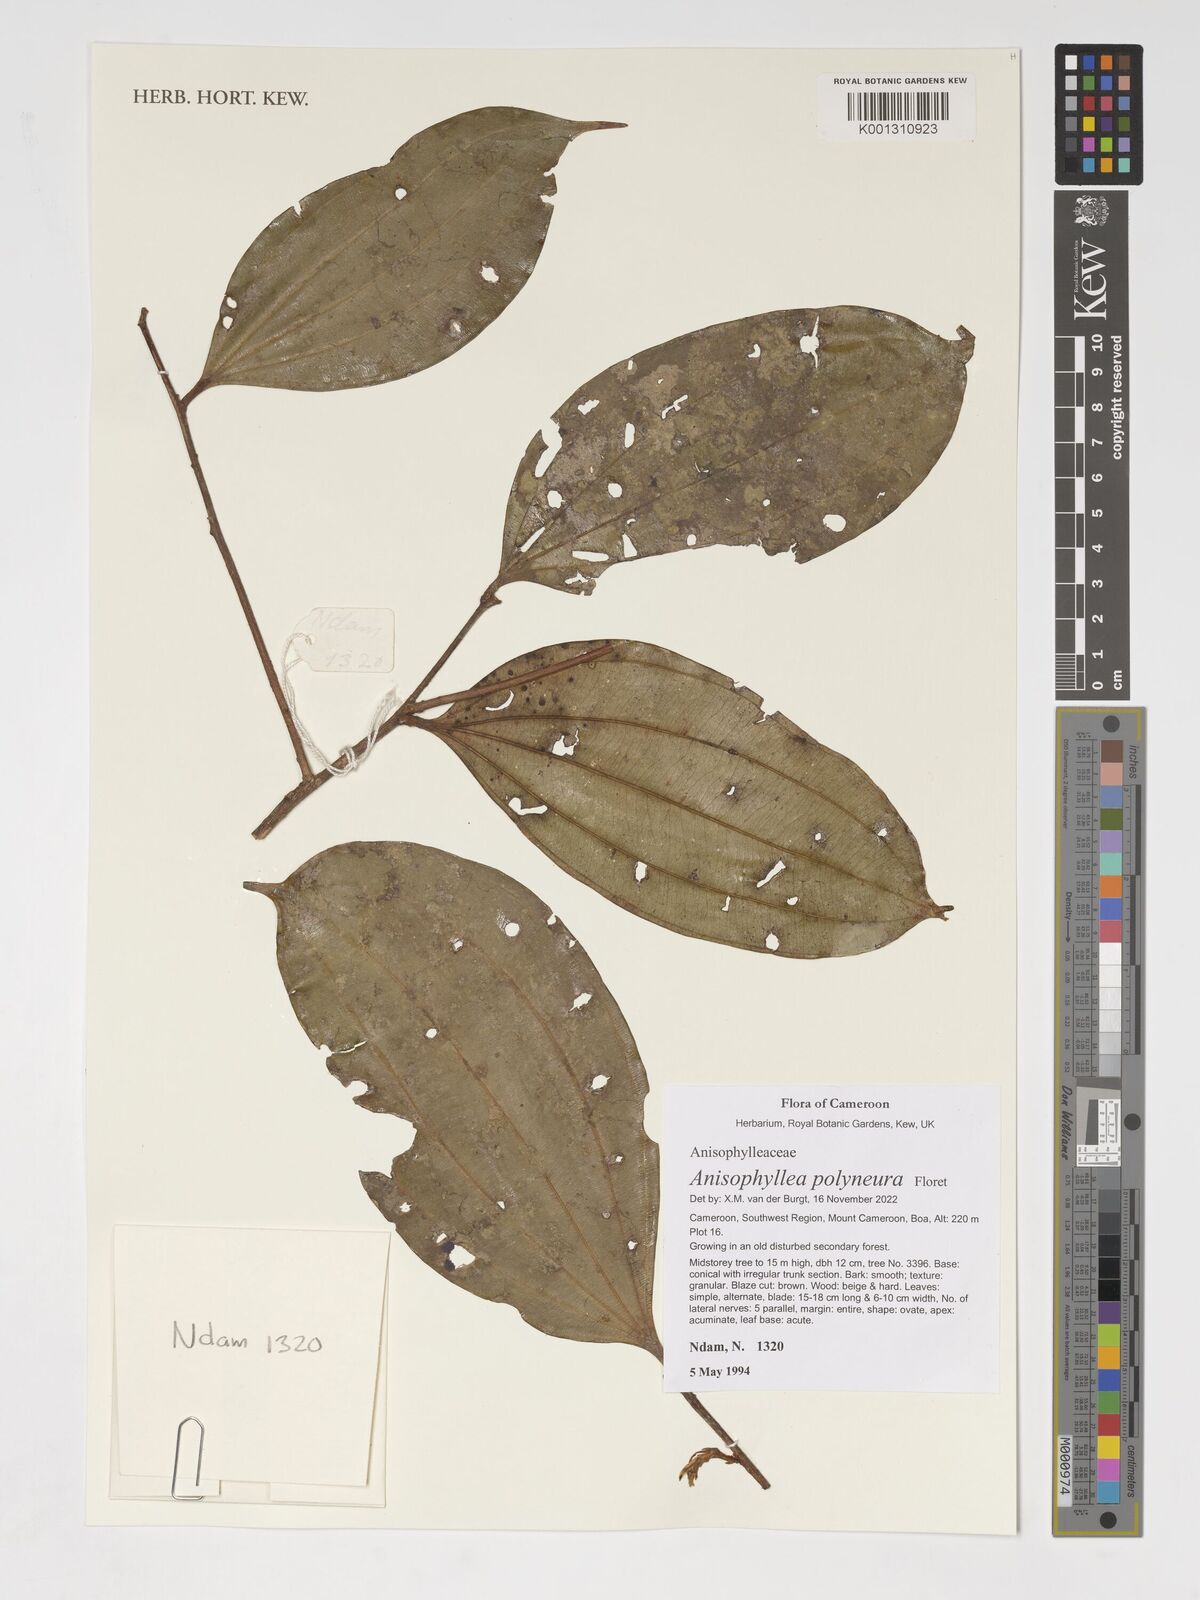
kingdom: Plantae
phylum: Tracheophyta
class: Magnoliopsida
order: Cucurbitales
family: Anisophylleaceae
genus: Anisophyllea
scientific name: Anisophyllea polyneura
